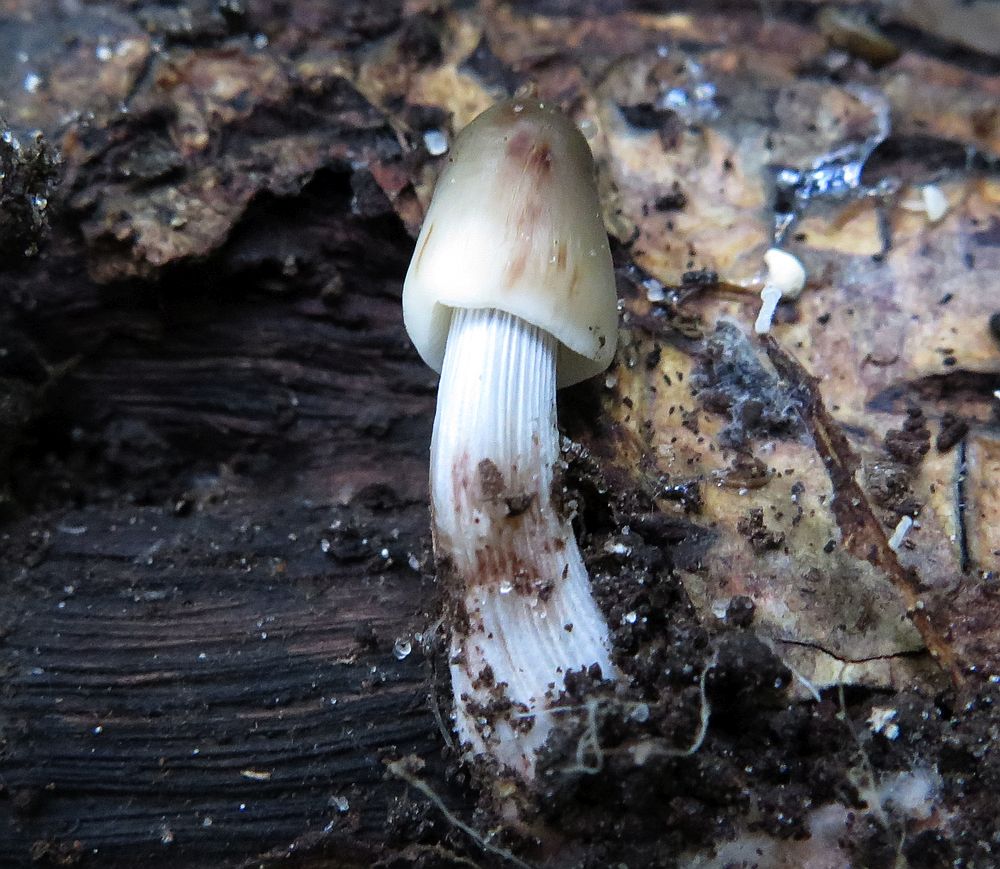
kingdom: Fungi
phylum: Basidiomycota
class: Agaricomycetes
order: Agaricales
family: Mycenaceae
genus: Mycena
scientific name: Mycena polygramma
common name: mangestribet huesvamp
